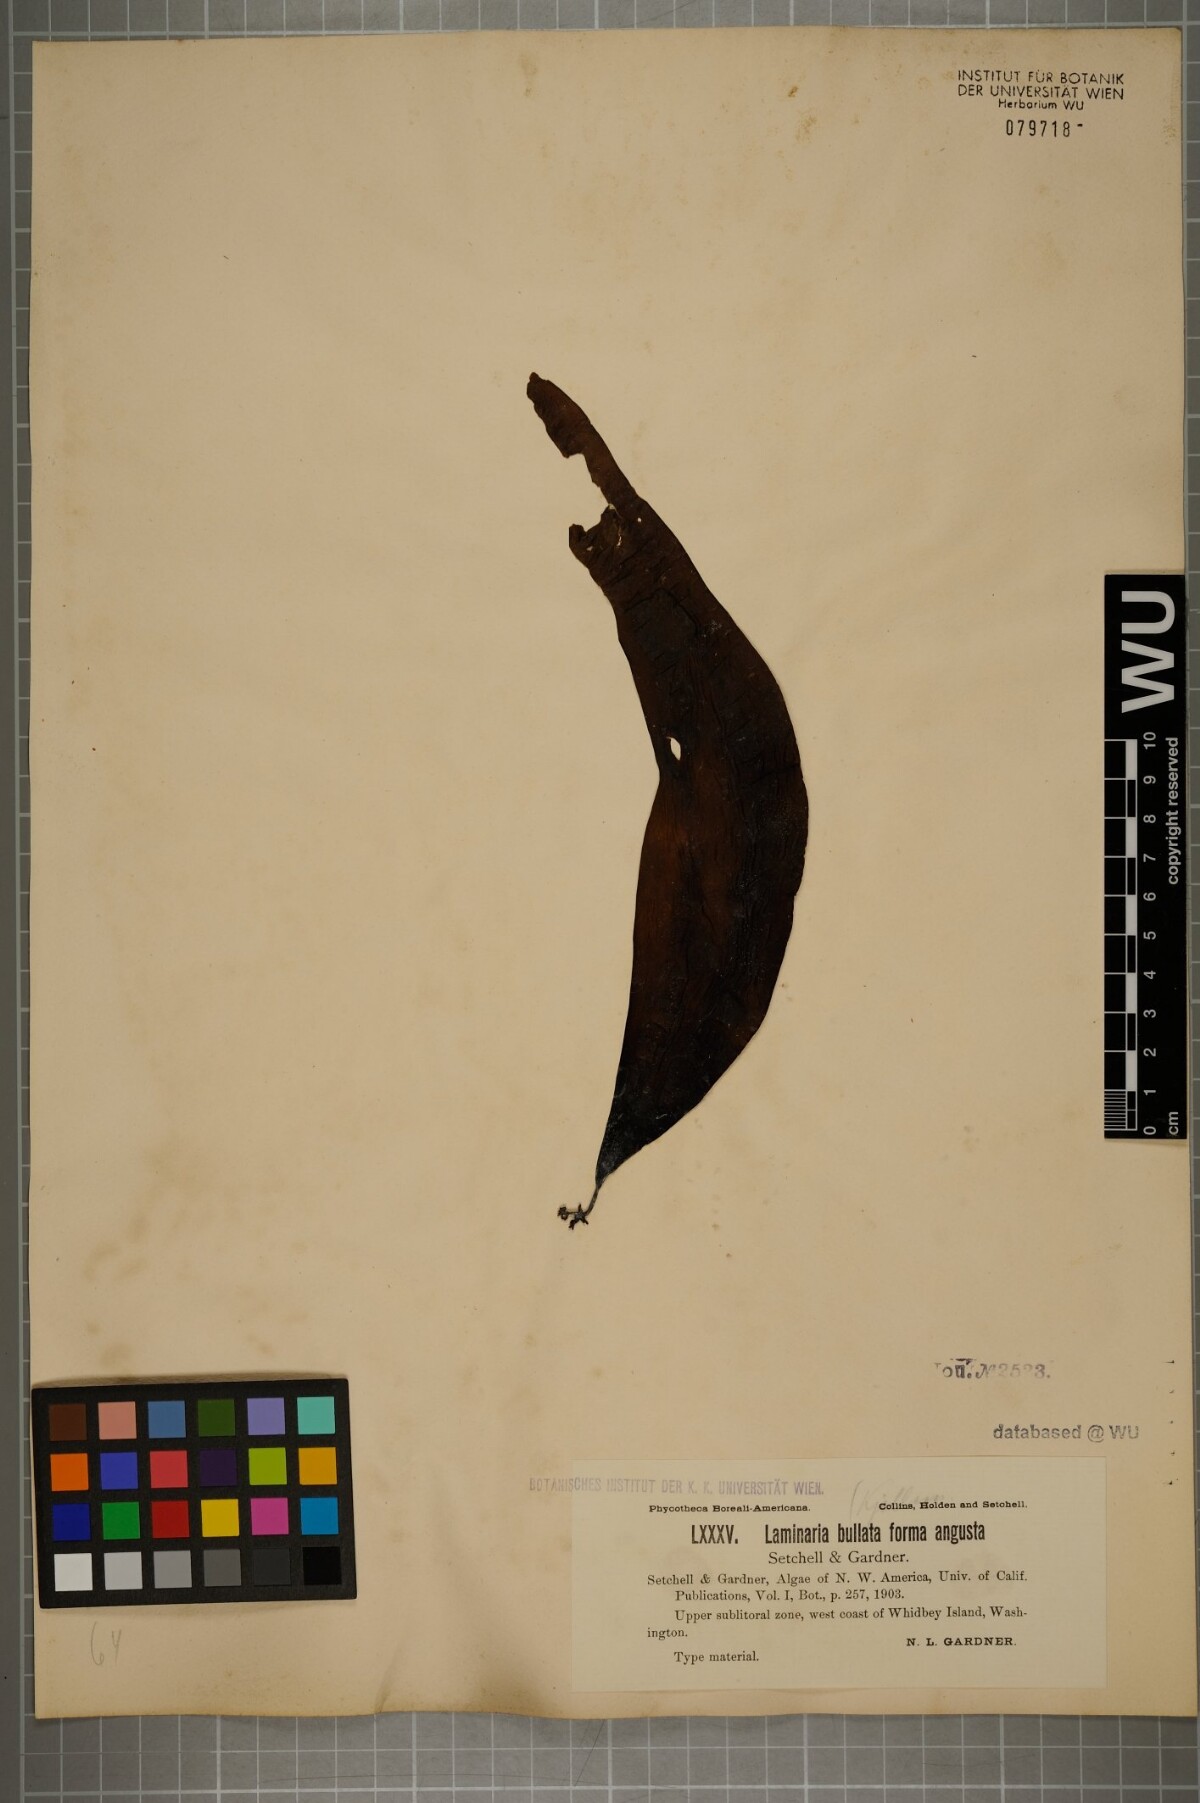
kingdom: Chromista
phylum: Ochrophyta
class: Phaeophyceae
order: Laminariales
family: Laminariaceae
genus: Laminaria
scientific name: Laminaria
